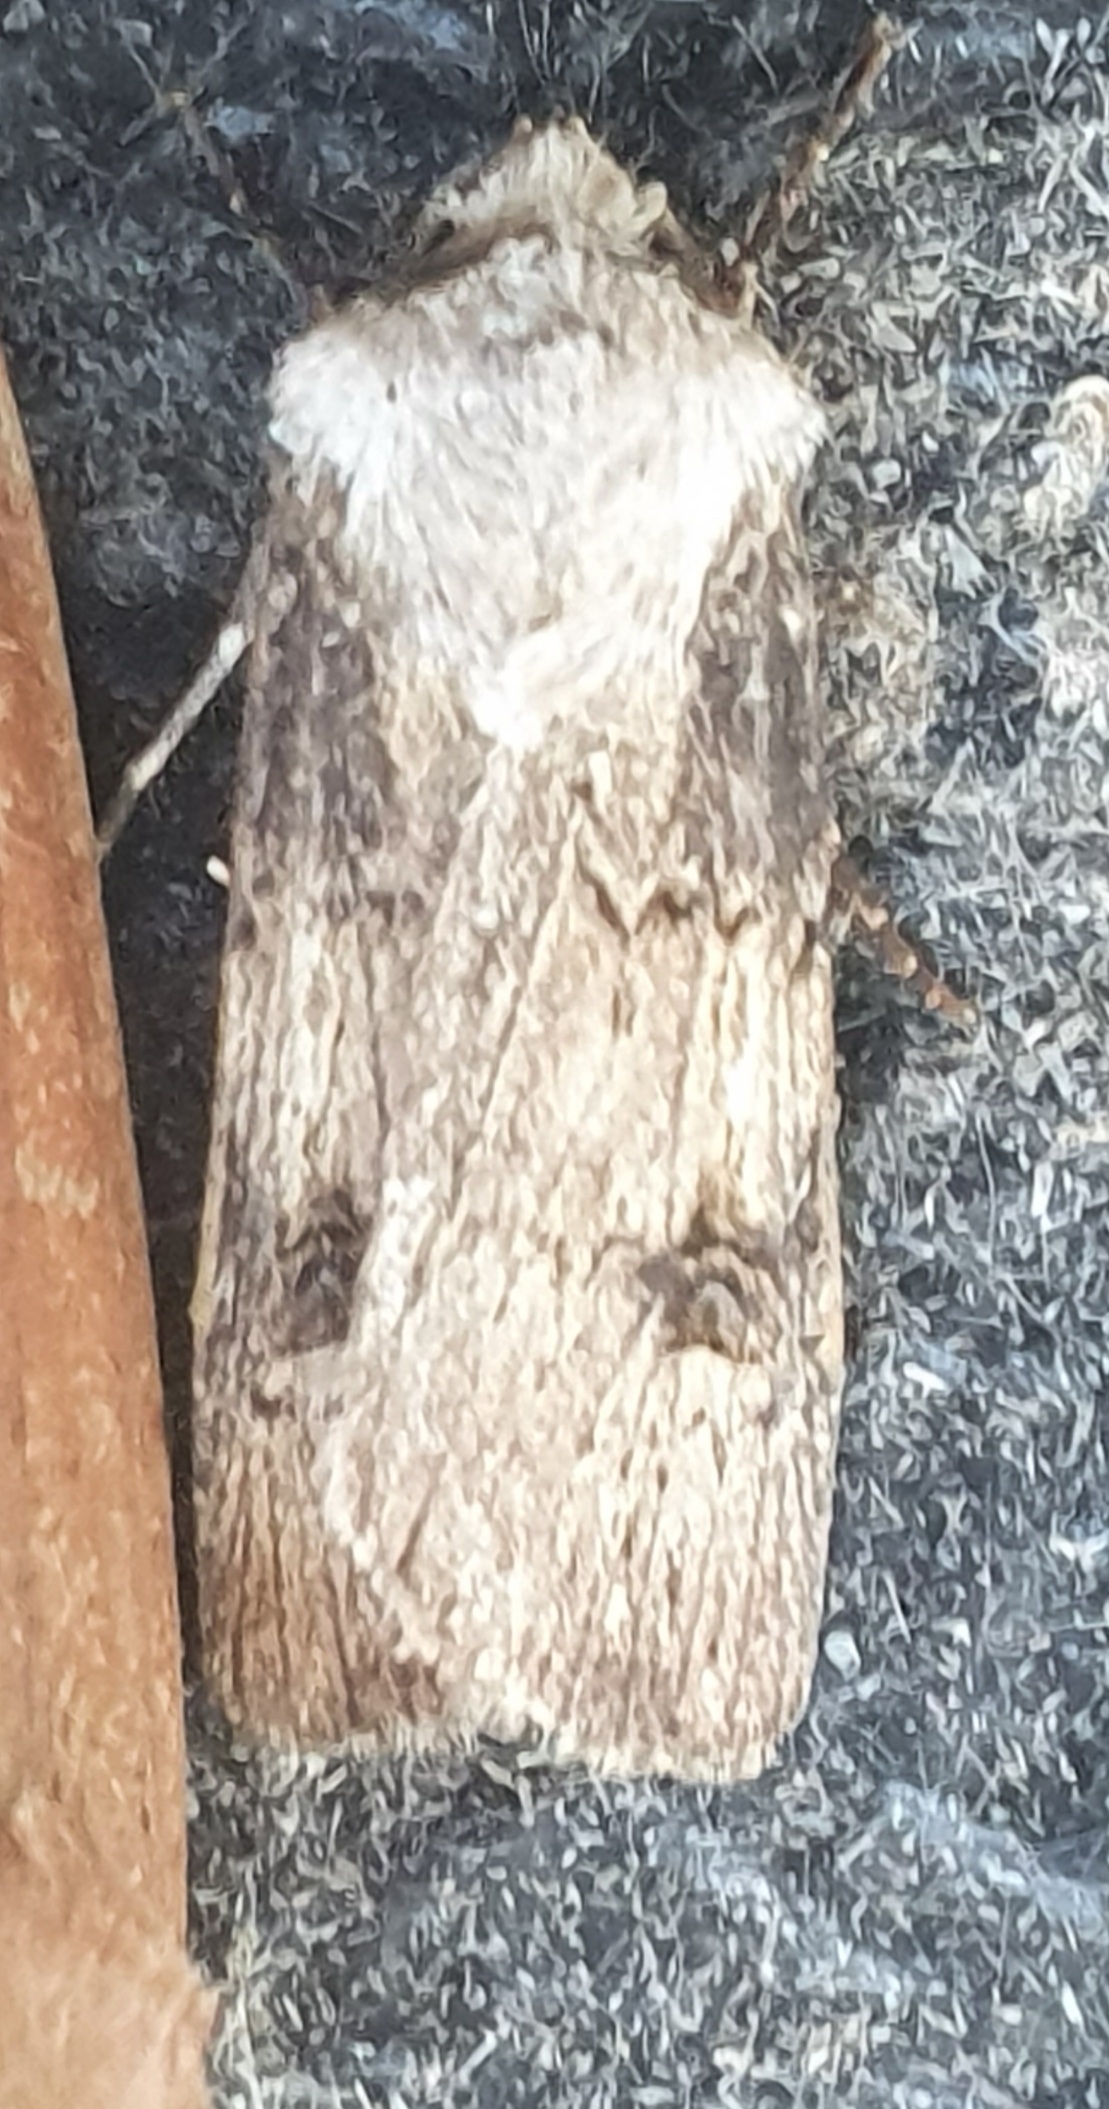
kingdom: Animalia
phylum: Arthropoda
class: Insecta
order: Lepidoptera
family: Noctuidae
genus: Agrotis
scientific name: Agrotis puta
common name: Frønnet landmand
